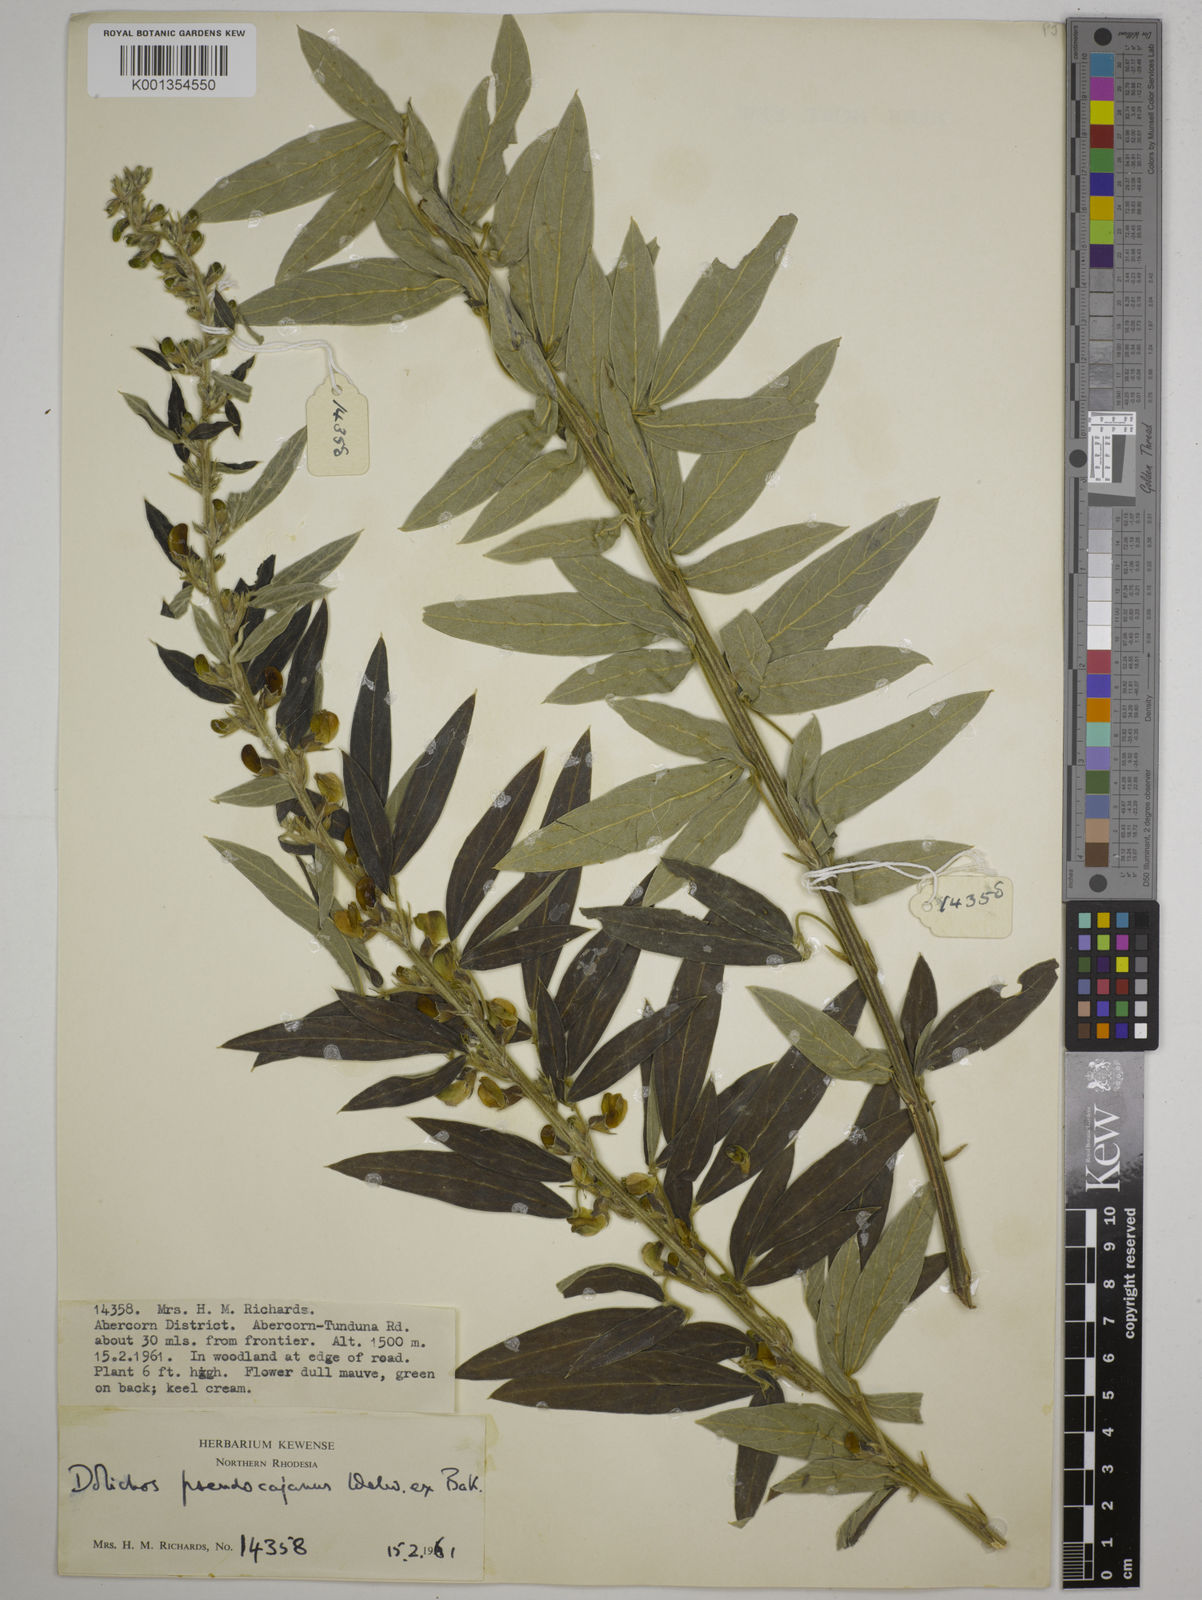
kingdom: Plantae
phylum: Tracheophyta
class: Magnoliopsida
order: Fabales
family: Fabaceae
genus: Dolichos
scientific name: Dolichos pseudocajanus
